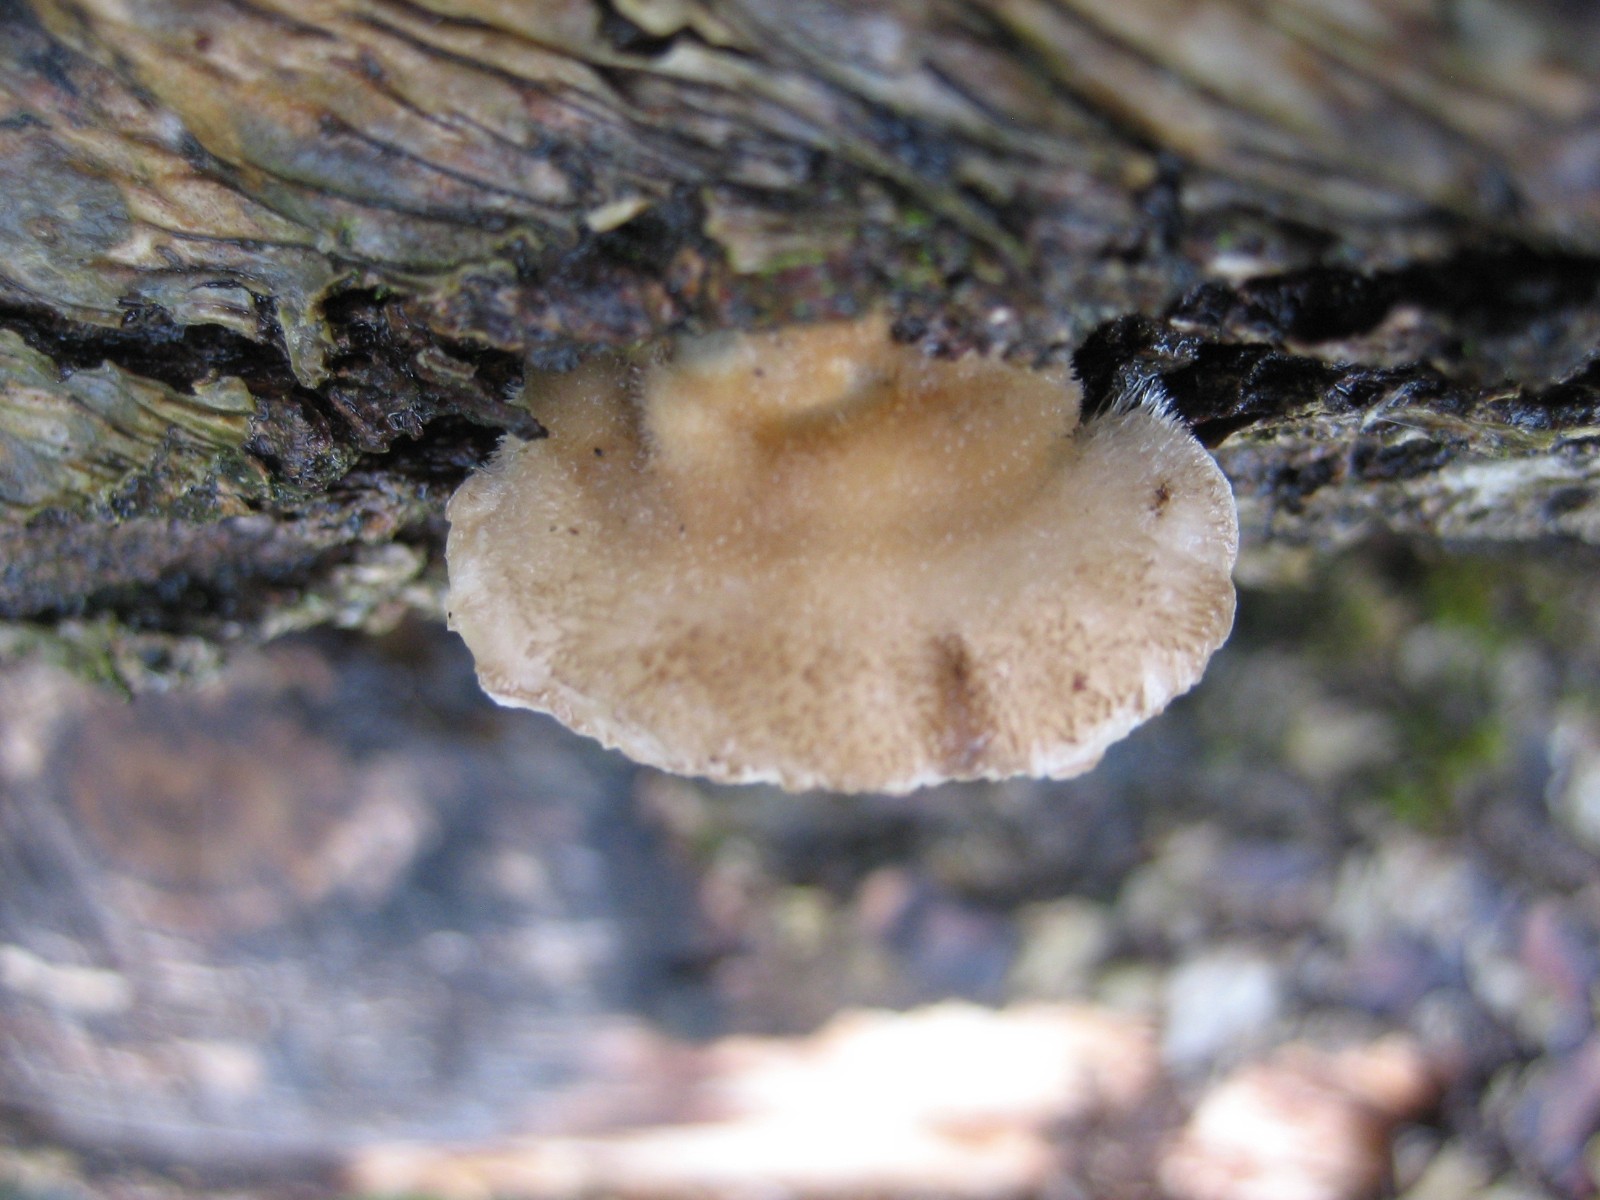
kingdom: Fungi
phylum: Basidiomycota
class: Agaricomycetes
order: Polyporales
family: Polyporaceae
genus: Trametes
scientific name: Trametes hirsuta
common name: håret læderporesvamp
